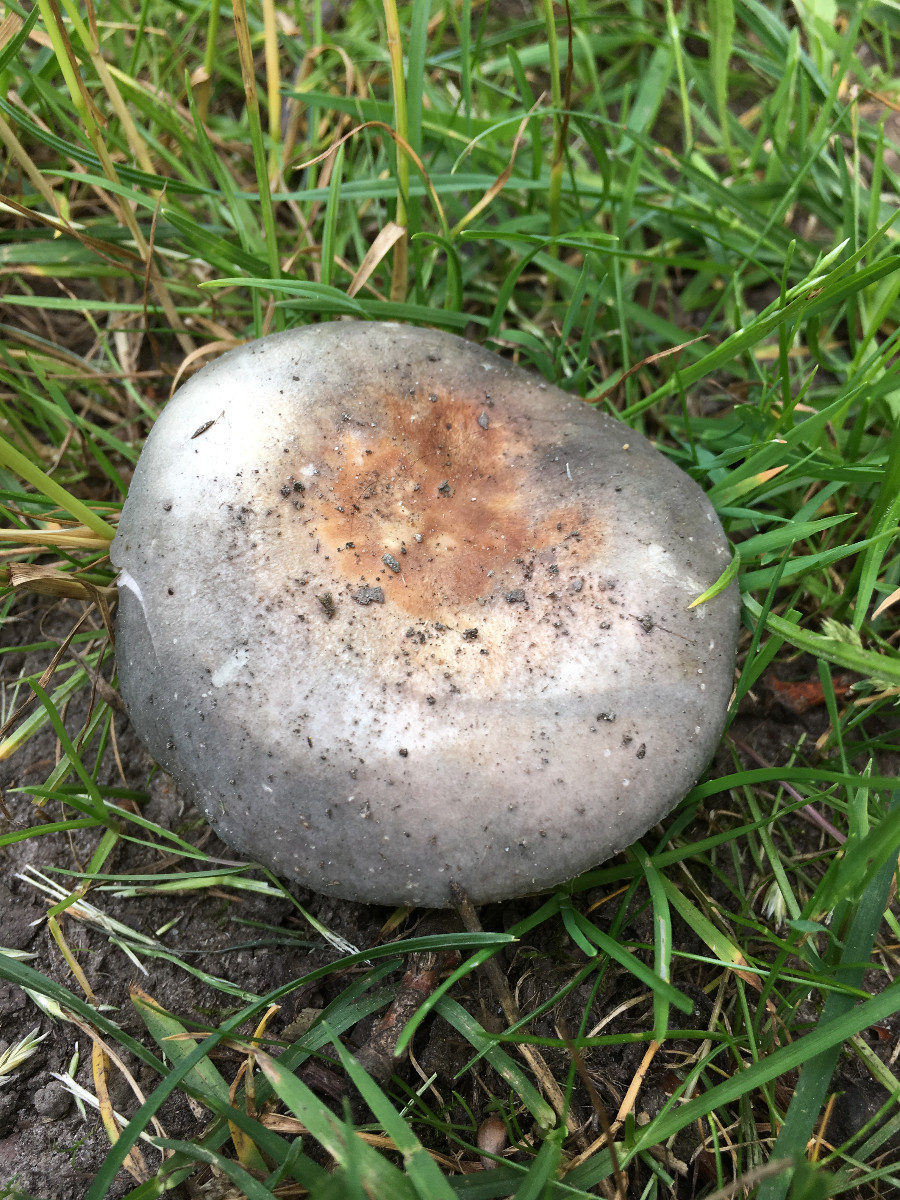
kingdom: Fungi
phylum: Basidiomycota
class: Agaricomycetes
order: Russulales
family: Russulaceae
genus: Russula
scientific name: Russula parazurea
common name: blågrå skørhat
